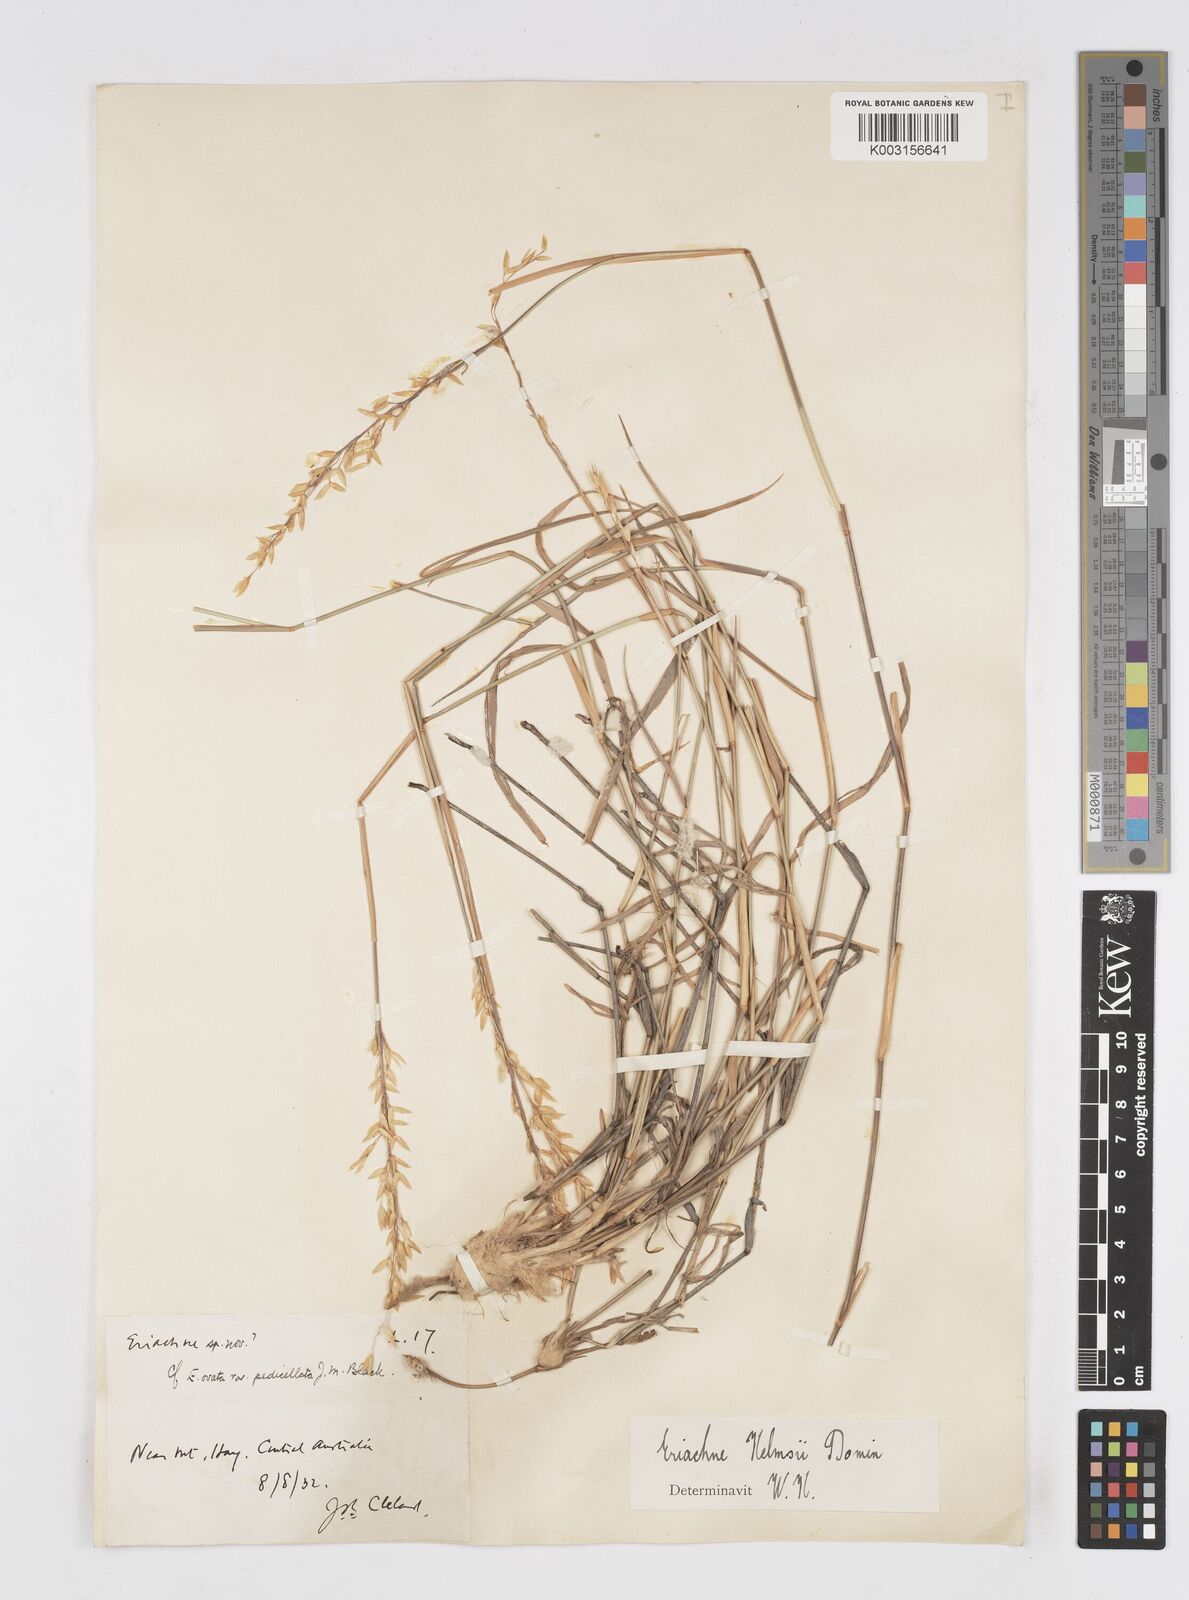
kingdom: Plantae
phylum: Tracheophyta
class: Liliopsida
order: Poales
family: Poaceae
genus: Eriachne
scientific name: Eriachne helmsii
